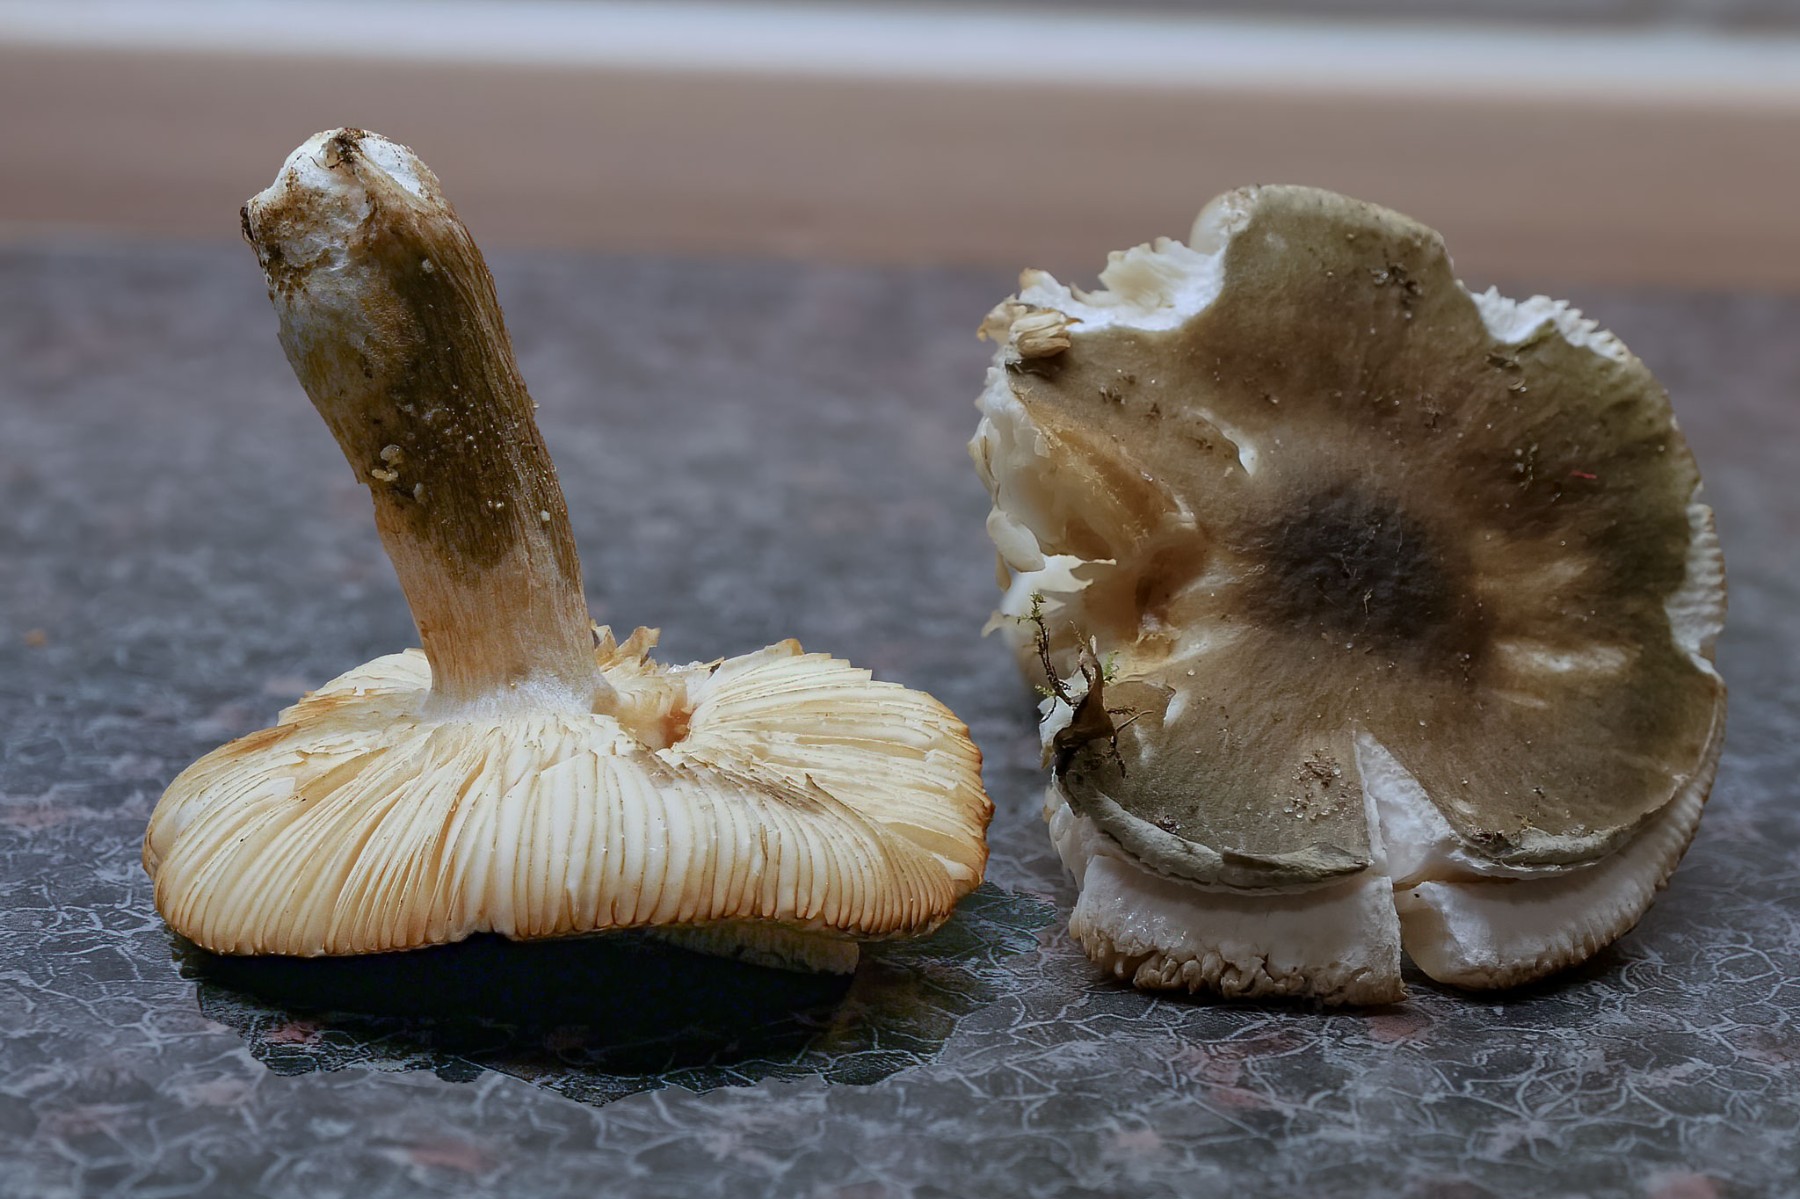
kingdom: Fungi
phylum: Basidiomycota
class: Agaricomycetes
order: Russulales
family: Russulaceae
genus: Russula
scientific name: Russula clavipes
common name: olivengrøn skørhat
